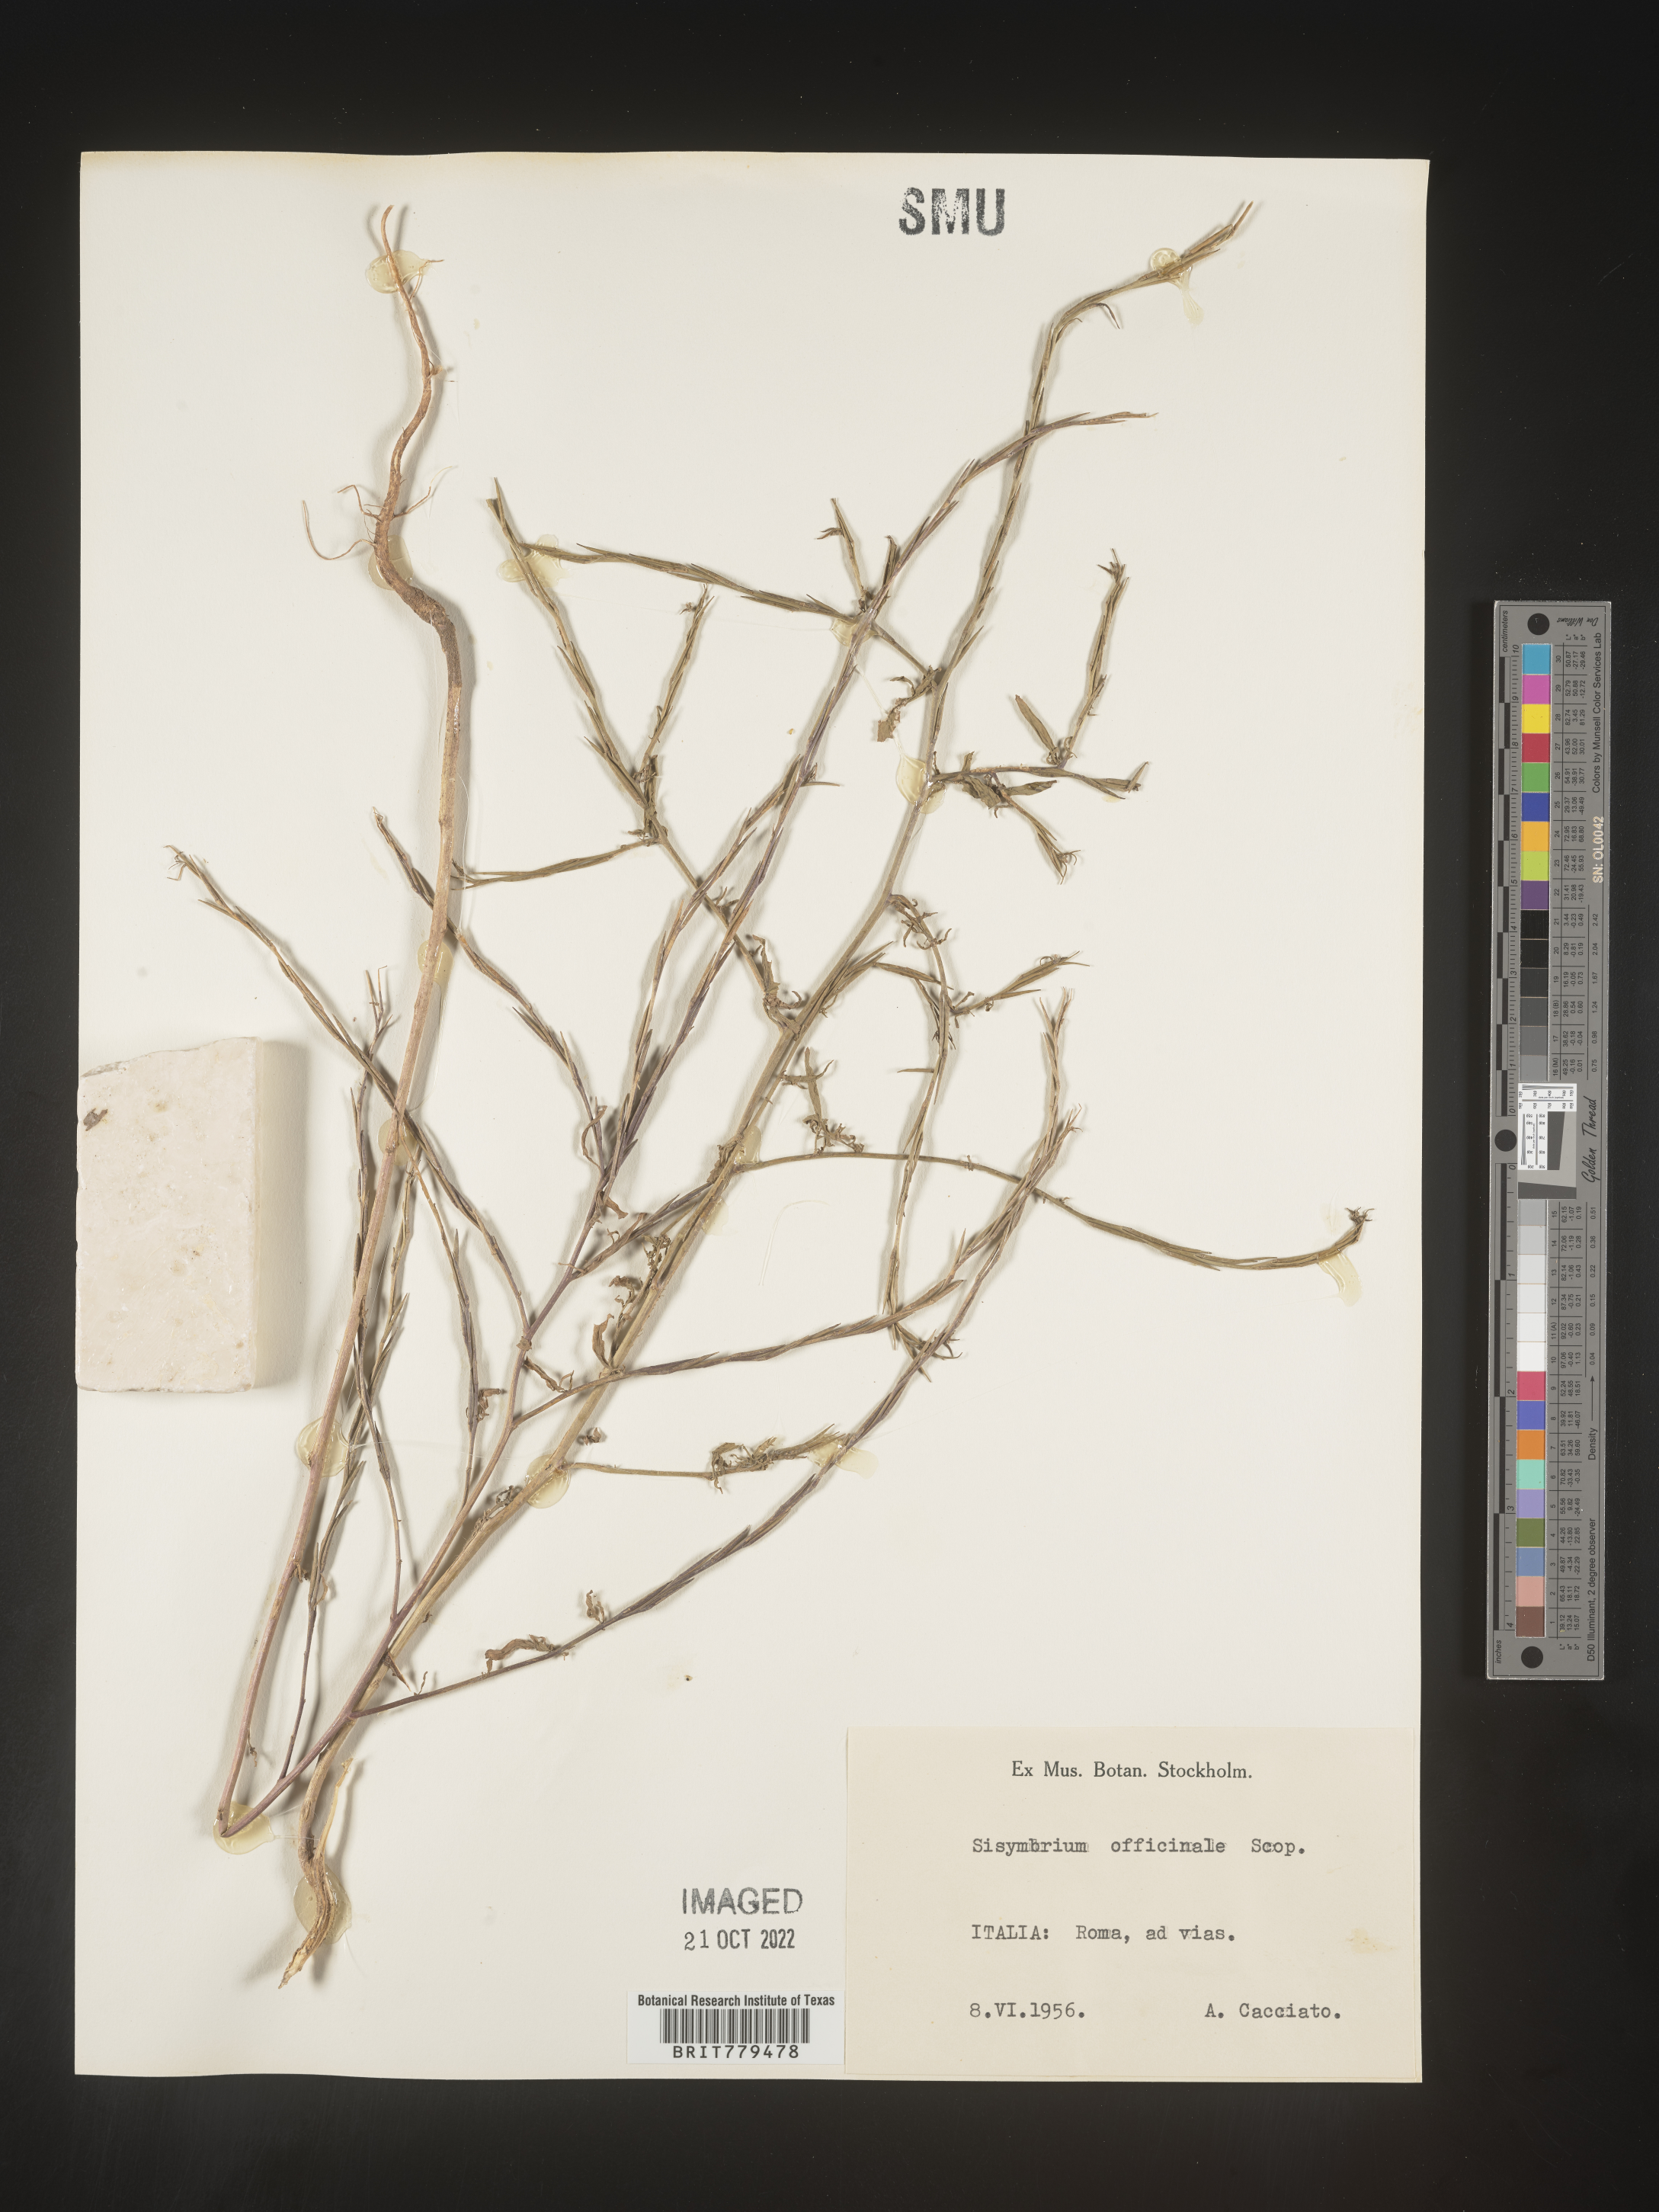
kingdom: Plantae
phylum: Tracheophyta
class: Magnoliopsida
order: Brassicales
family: Brassicaceae
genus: Sisymbrium
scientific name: Sisymbrium
